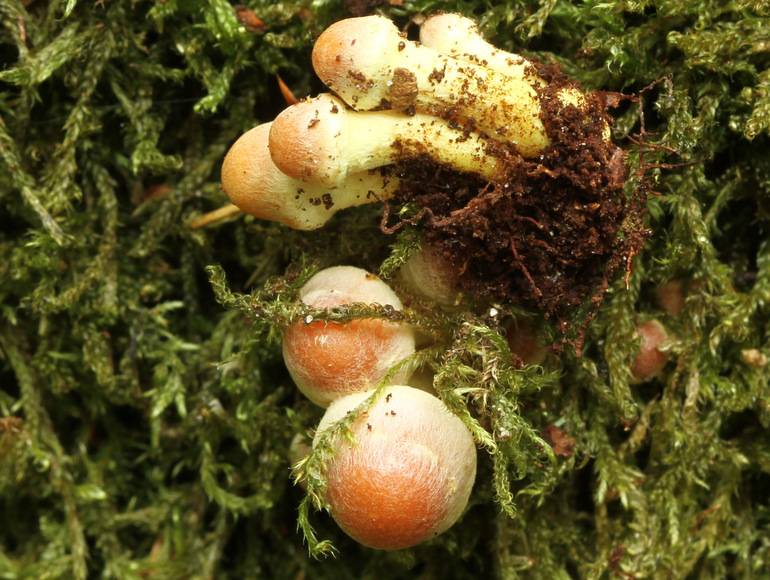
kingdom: Fungi
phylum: Basidiomycota
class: Agaricomycetes
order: Agaricales
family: Strophariaceae
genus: Hypholoma
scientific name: Hypholoma fasciculare
